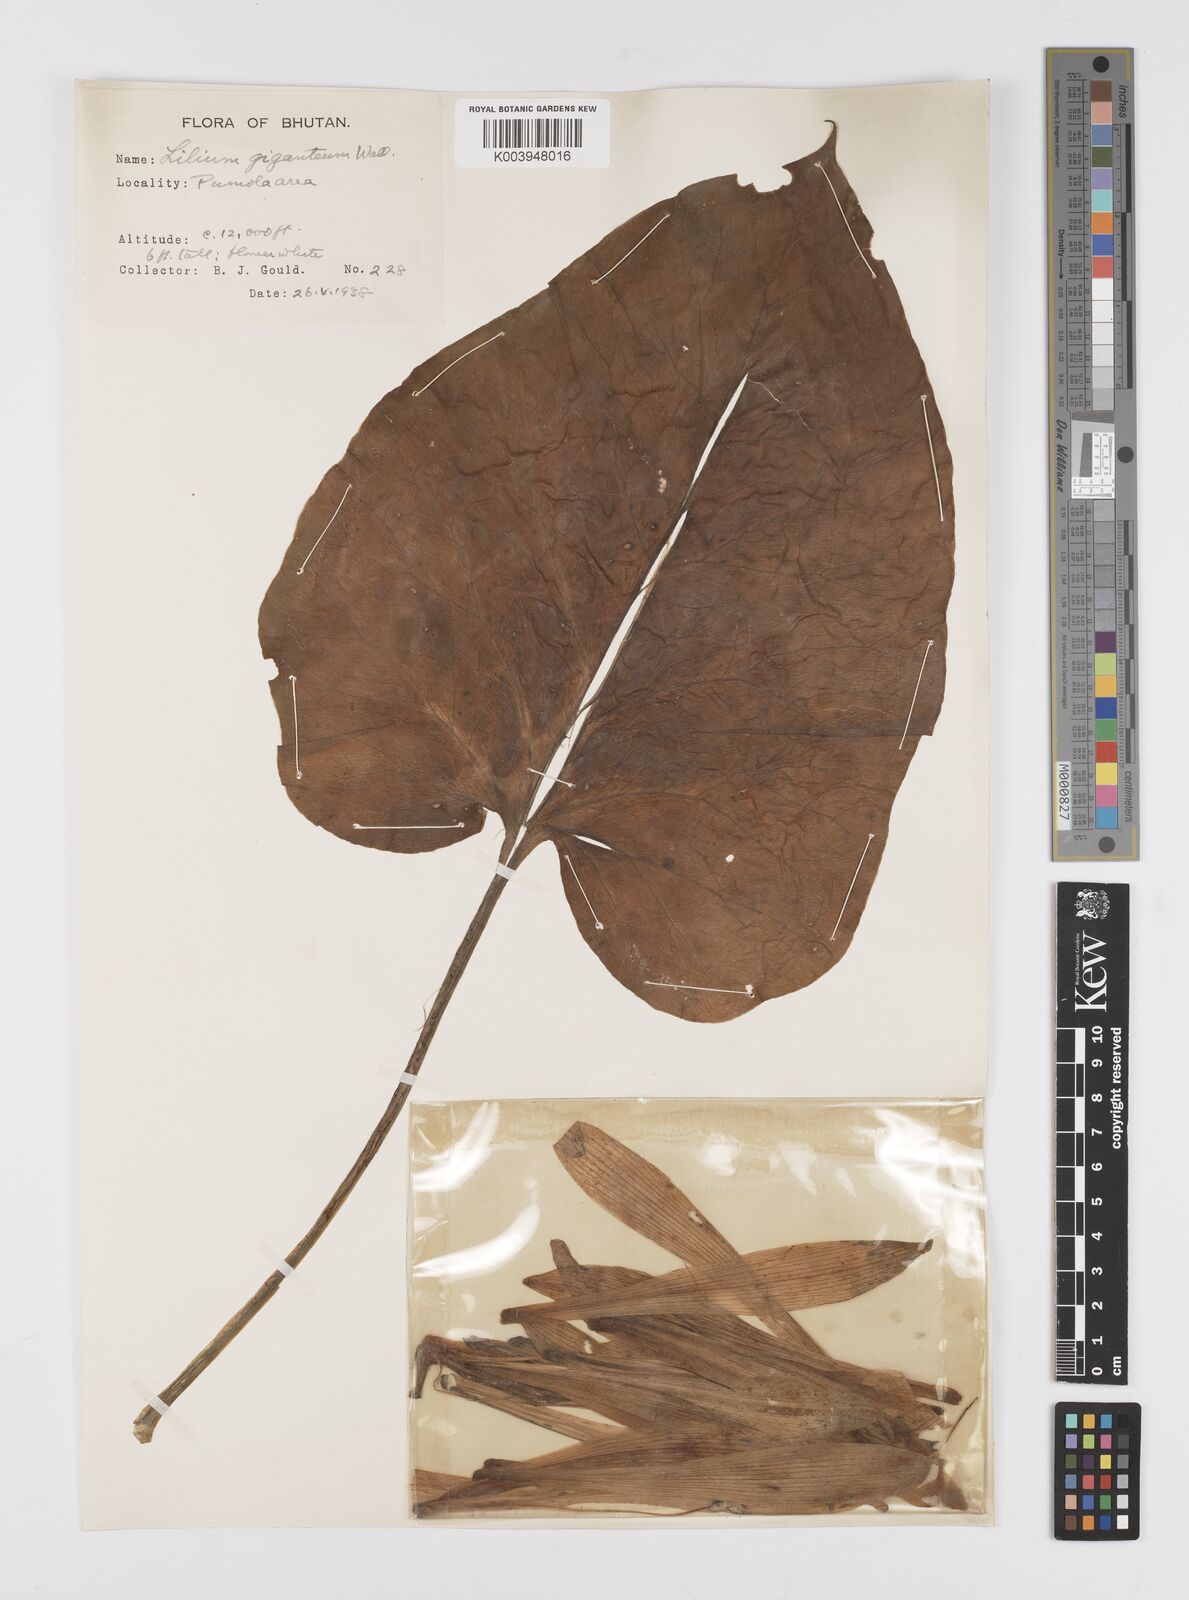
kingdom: Plantae
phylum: Tracheophyta
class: Liliopsida
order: Liliales
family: Liliaceae
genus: Cardiocrinum
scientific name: Cardiocrinum giganteum
